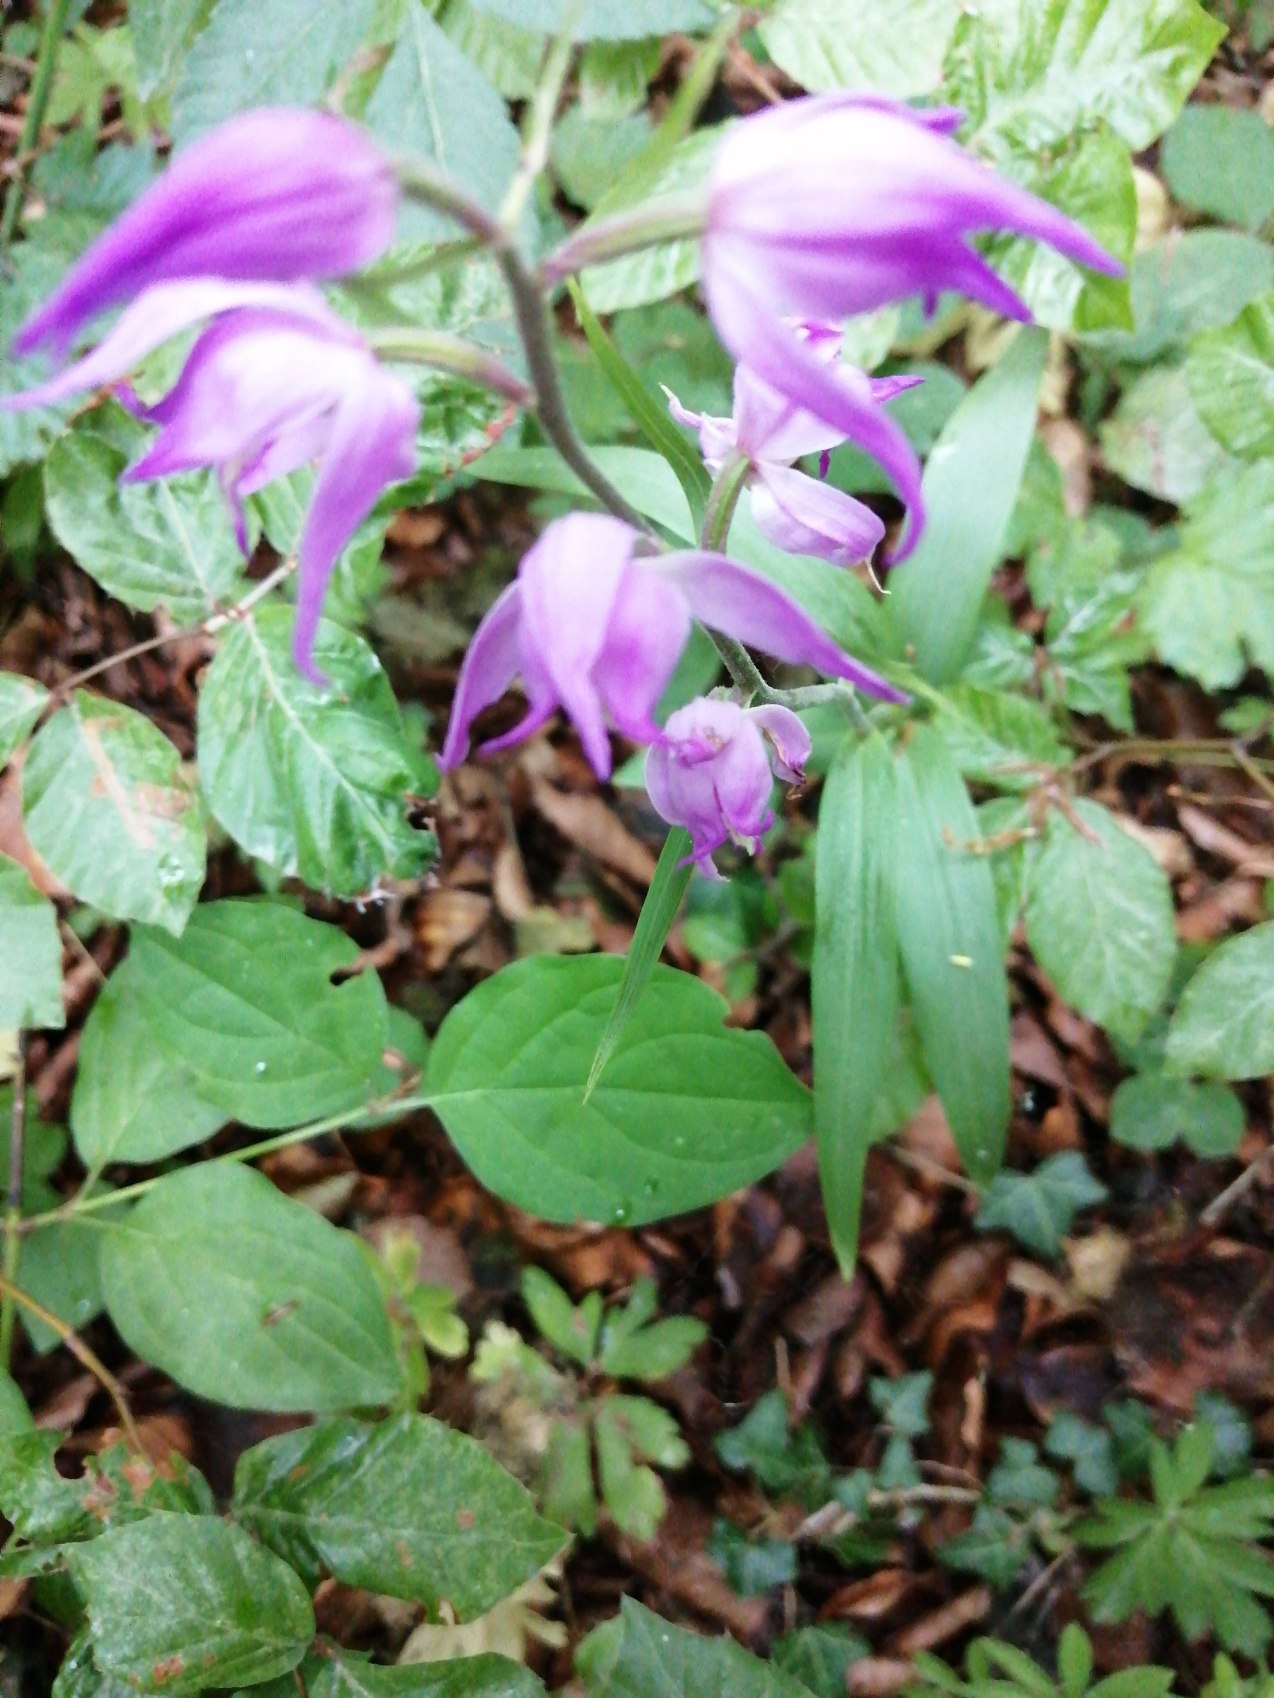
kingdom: Plantae
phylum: Tracheophyta
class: Liliopsida
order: Asparagales
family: Orchidaceae
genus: Cephalanthera
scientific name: Cephalanthera rubra
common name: Rød skovlilje
